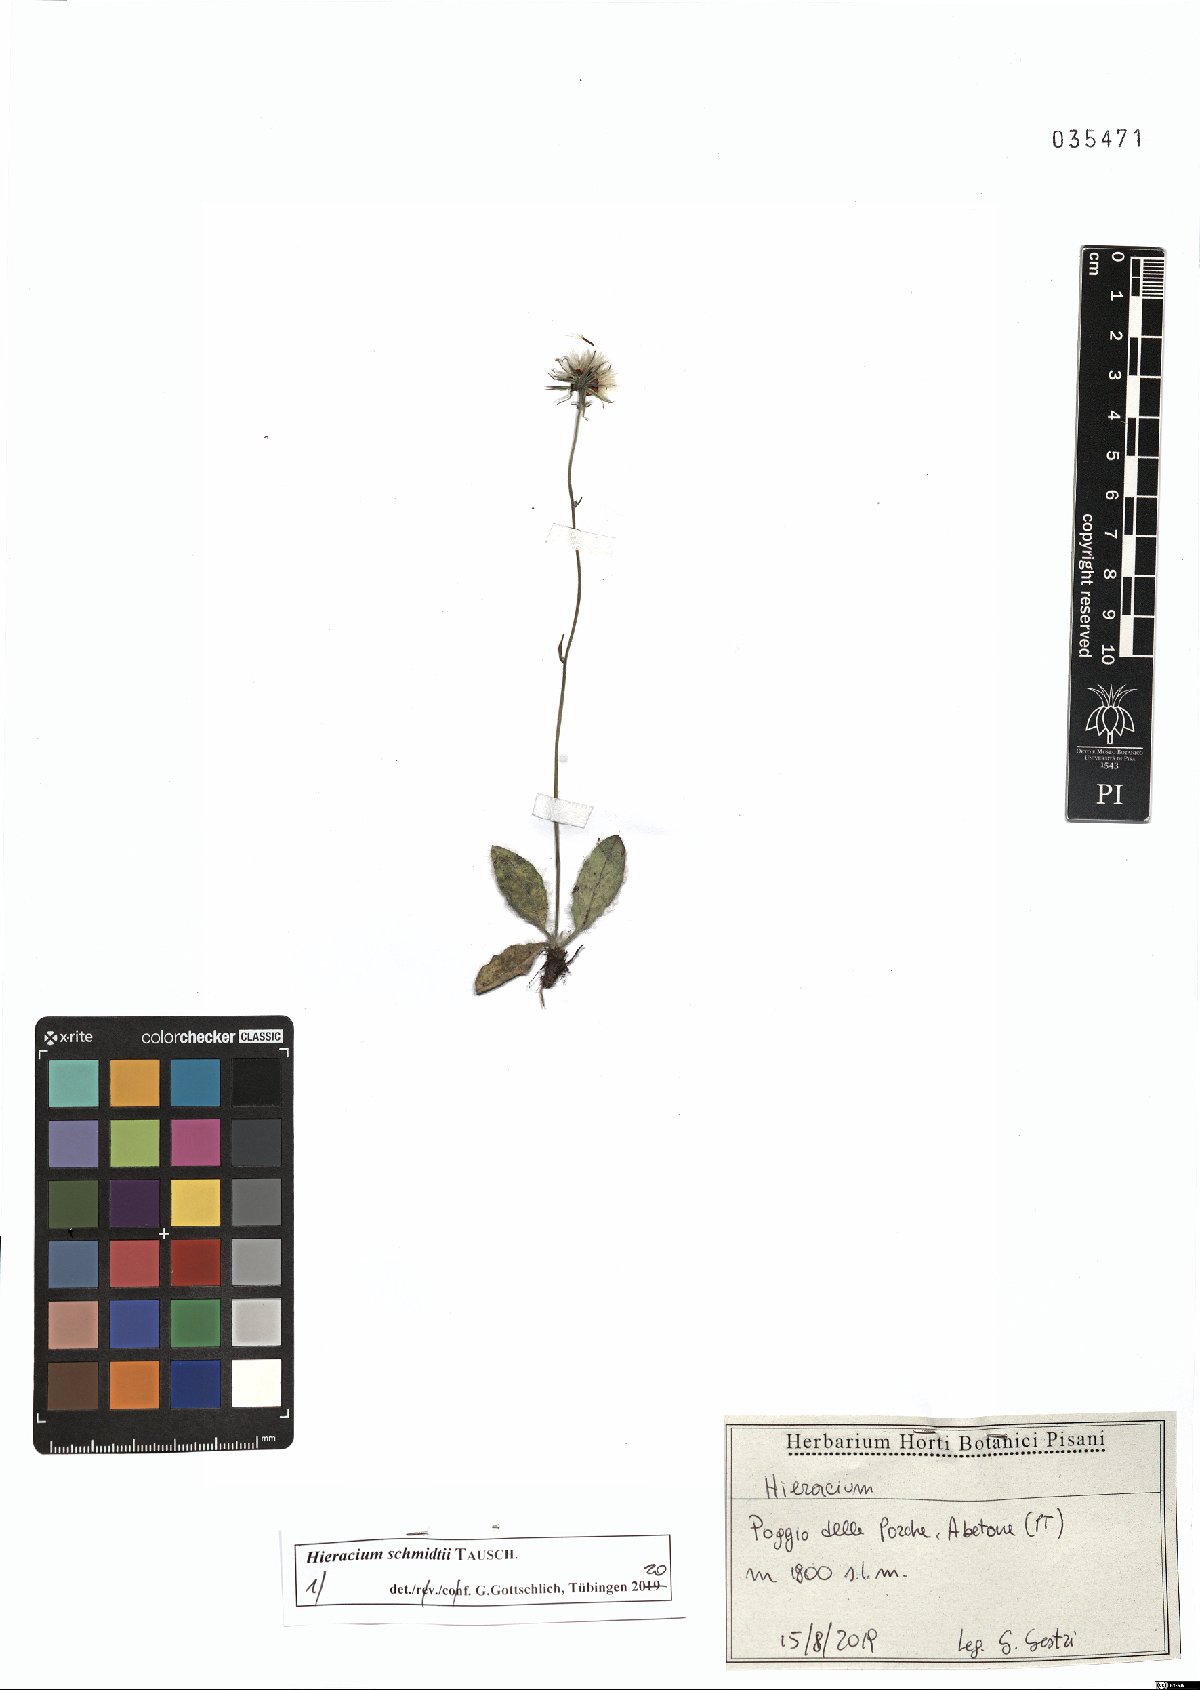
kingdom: Plantae
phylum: Tracheophyta
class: Magnoliopsida
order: Asterales
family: Asteraceae
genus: Hieracium
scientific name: Hieracium schmidtii
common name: Schmidt's hawkweed
